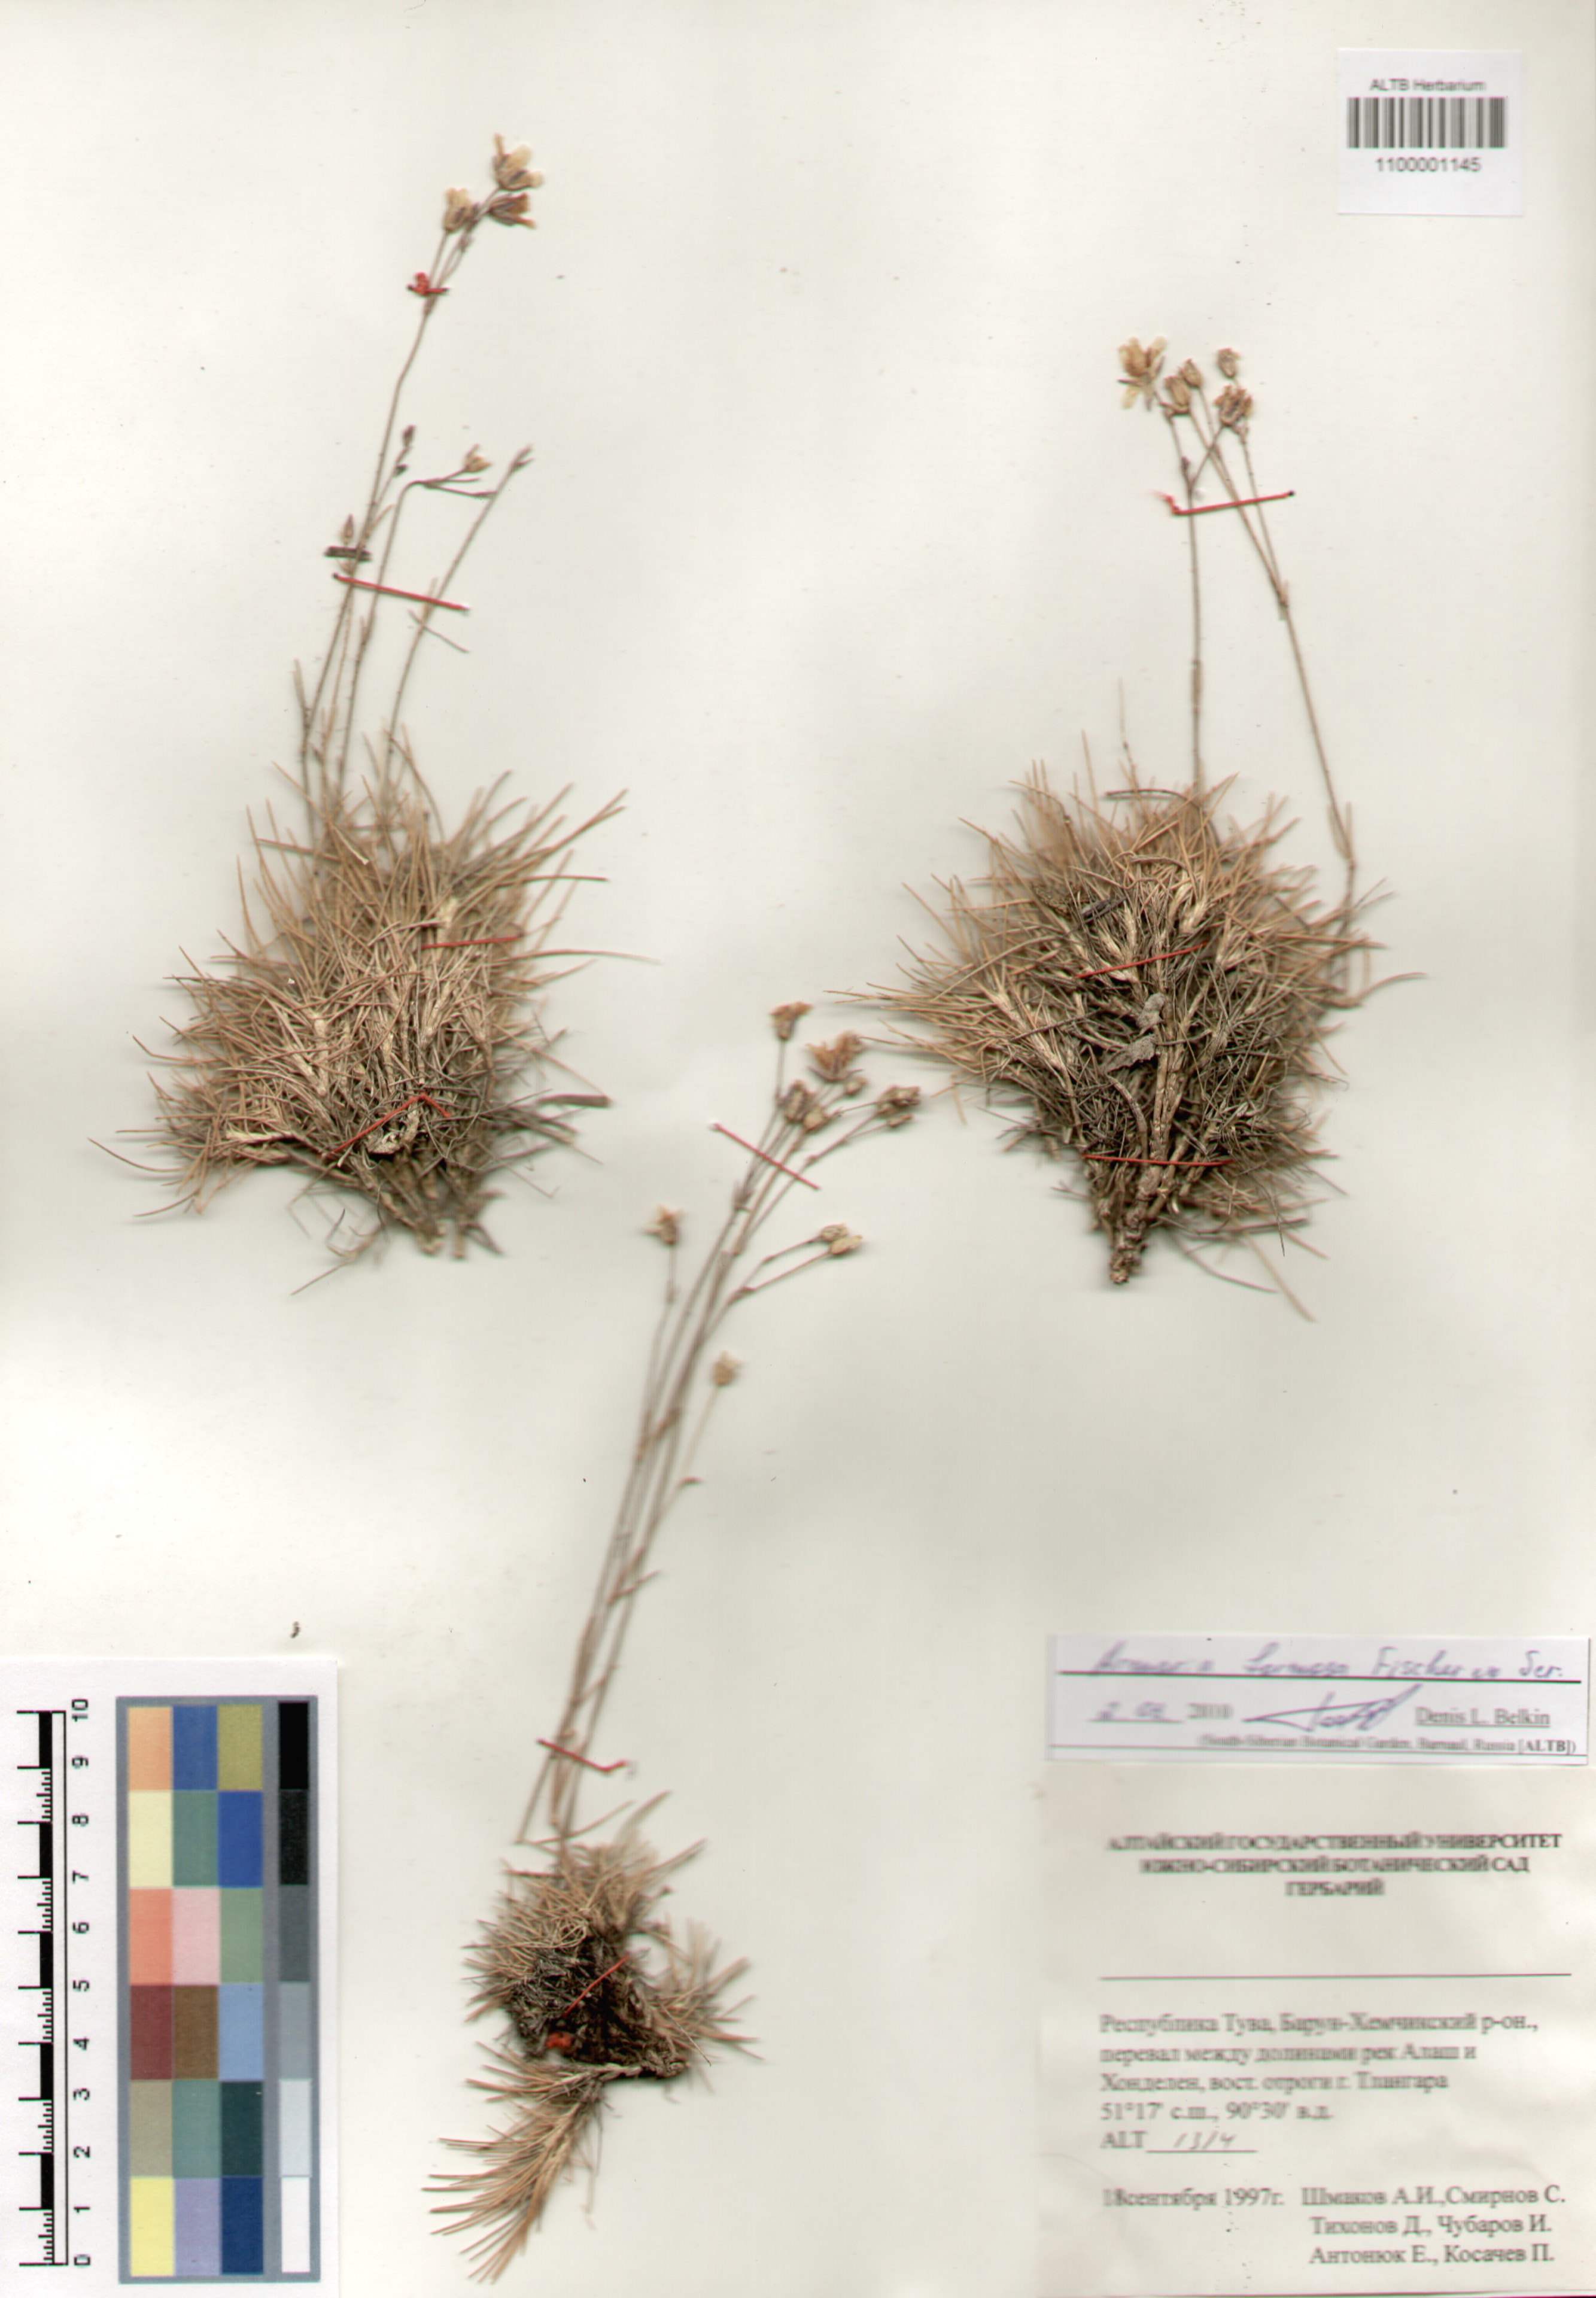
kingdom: Plantae
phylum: Tracheophyta
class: Magnoliopsida
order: Caryophyllales
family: Caryophyllaceae
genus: Eremogone
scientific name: Eremogone formosa
